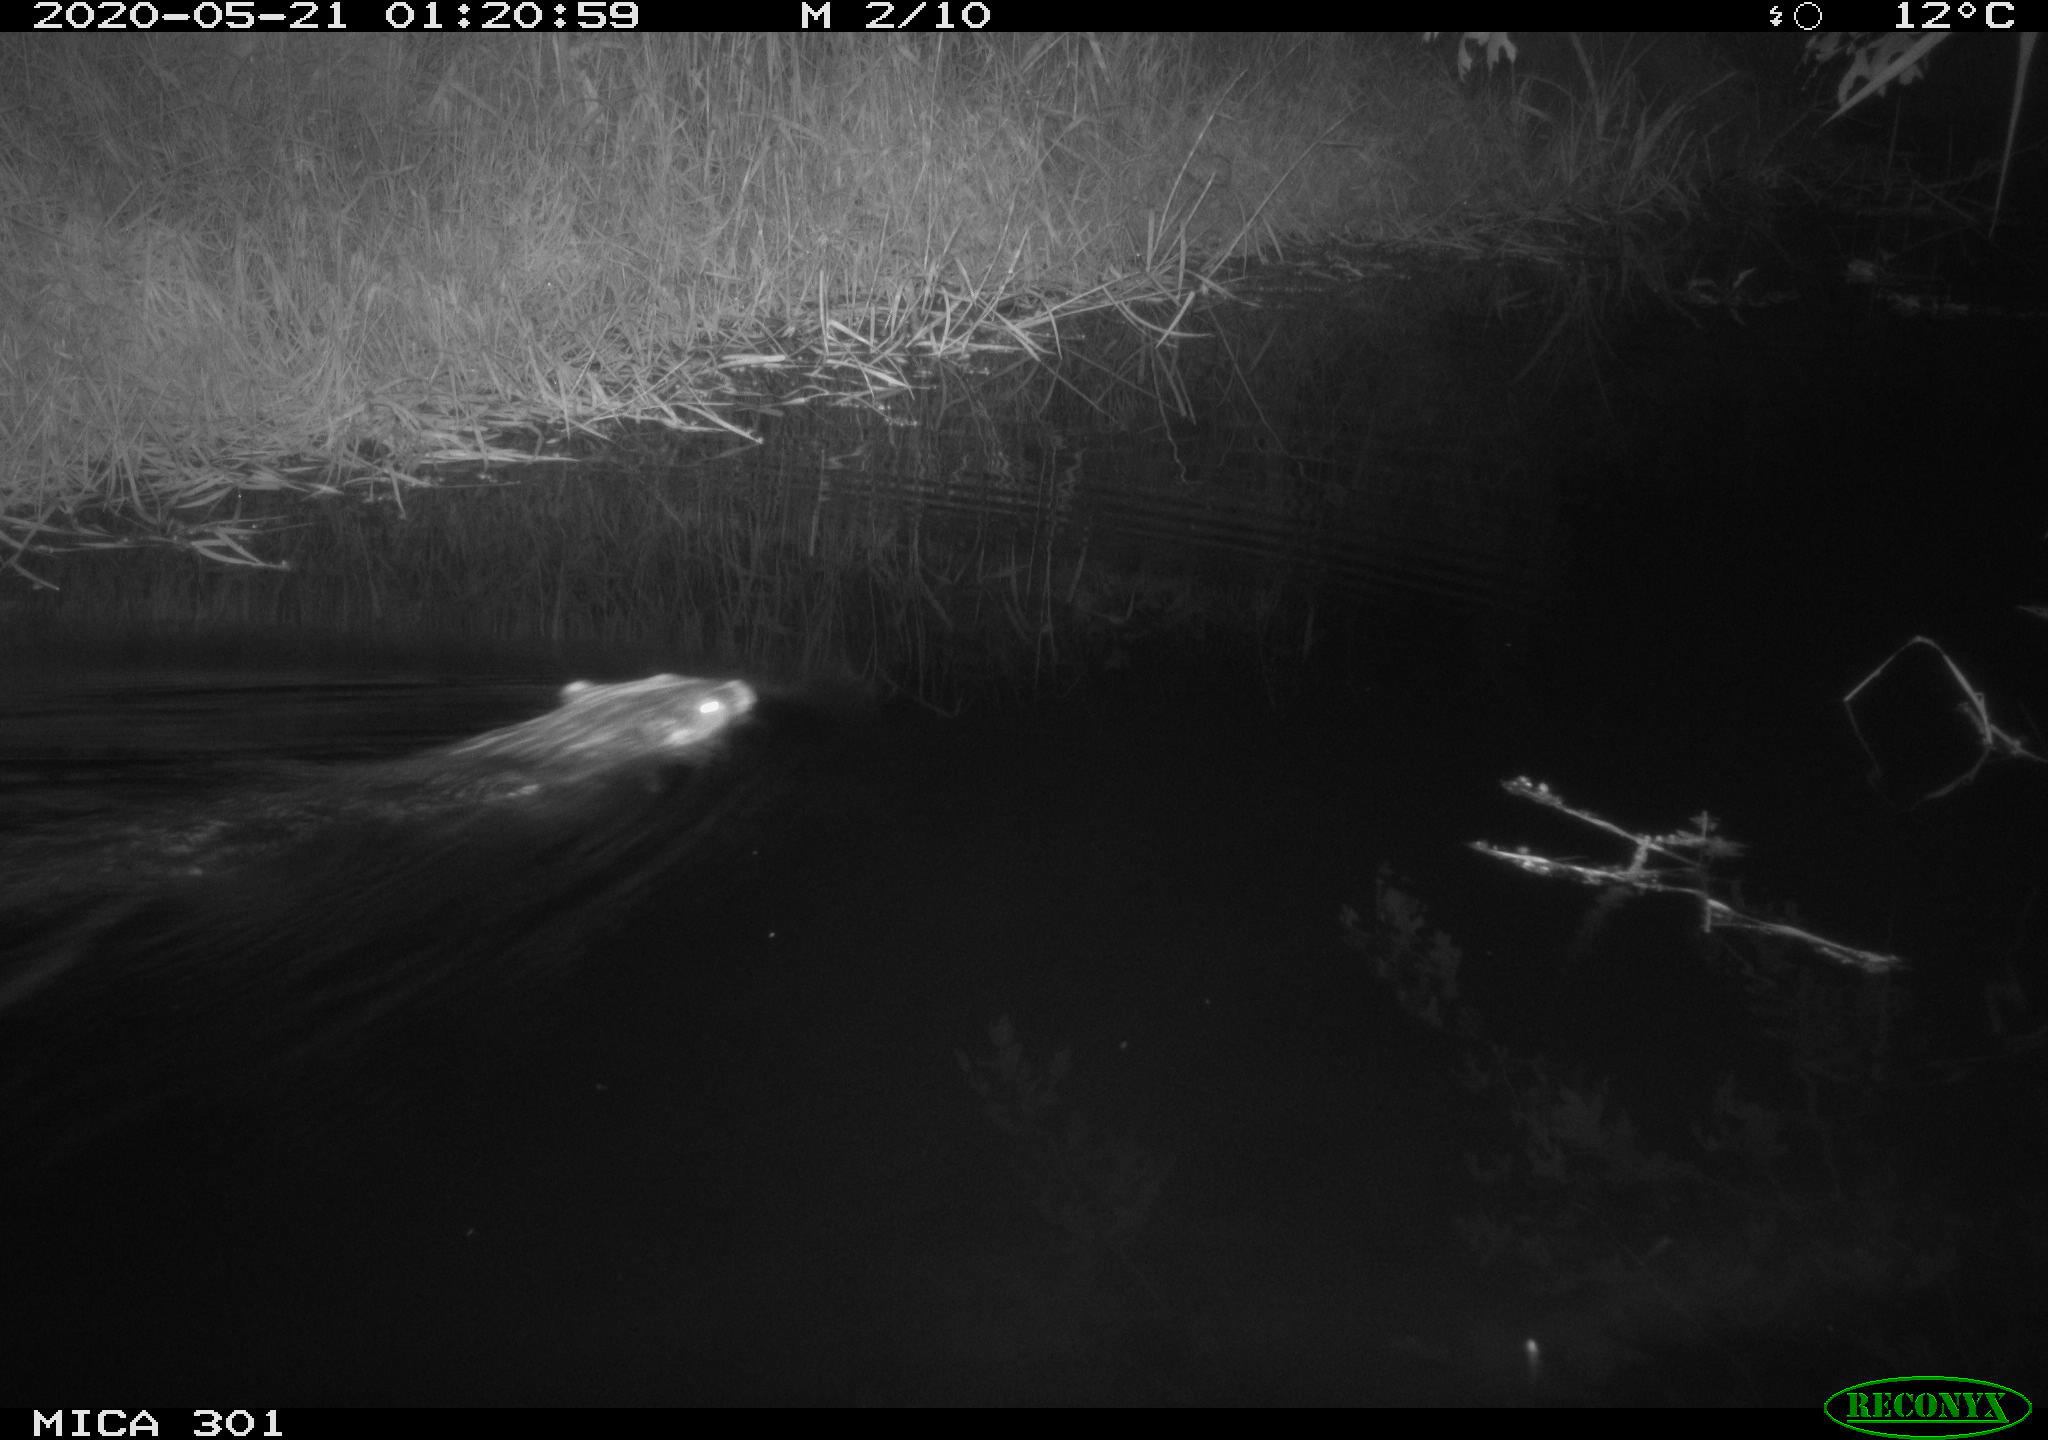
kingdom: Animalia
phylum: Chordata
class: Mammalia
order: Rodentia
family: Castoridae
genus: Castor
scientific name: Castor fiber
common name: Eurasian beaver
